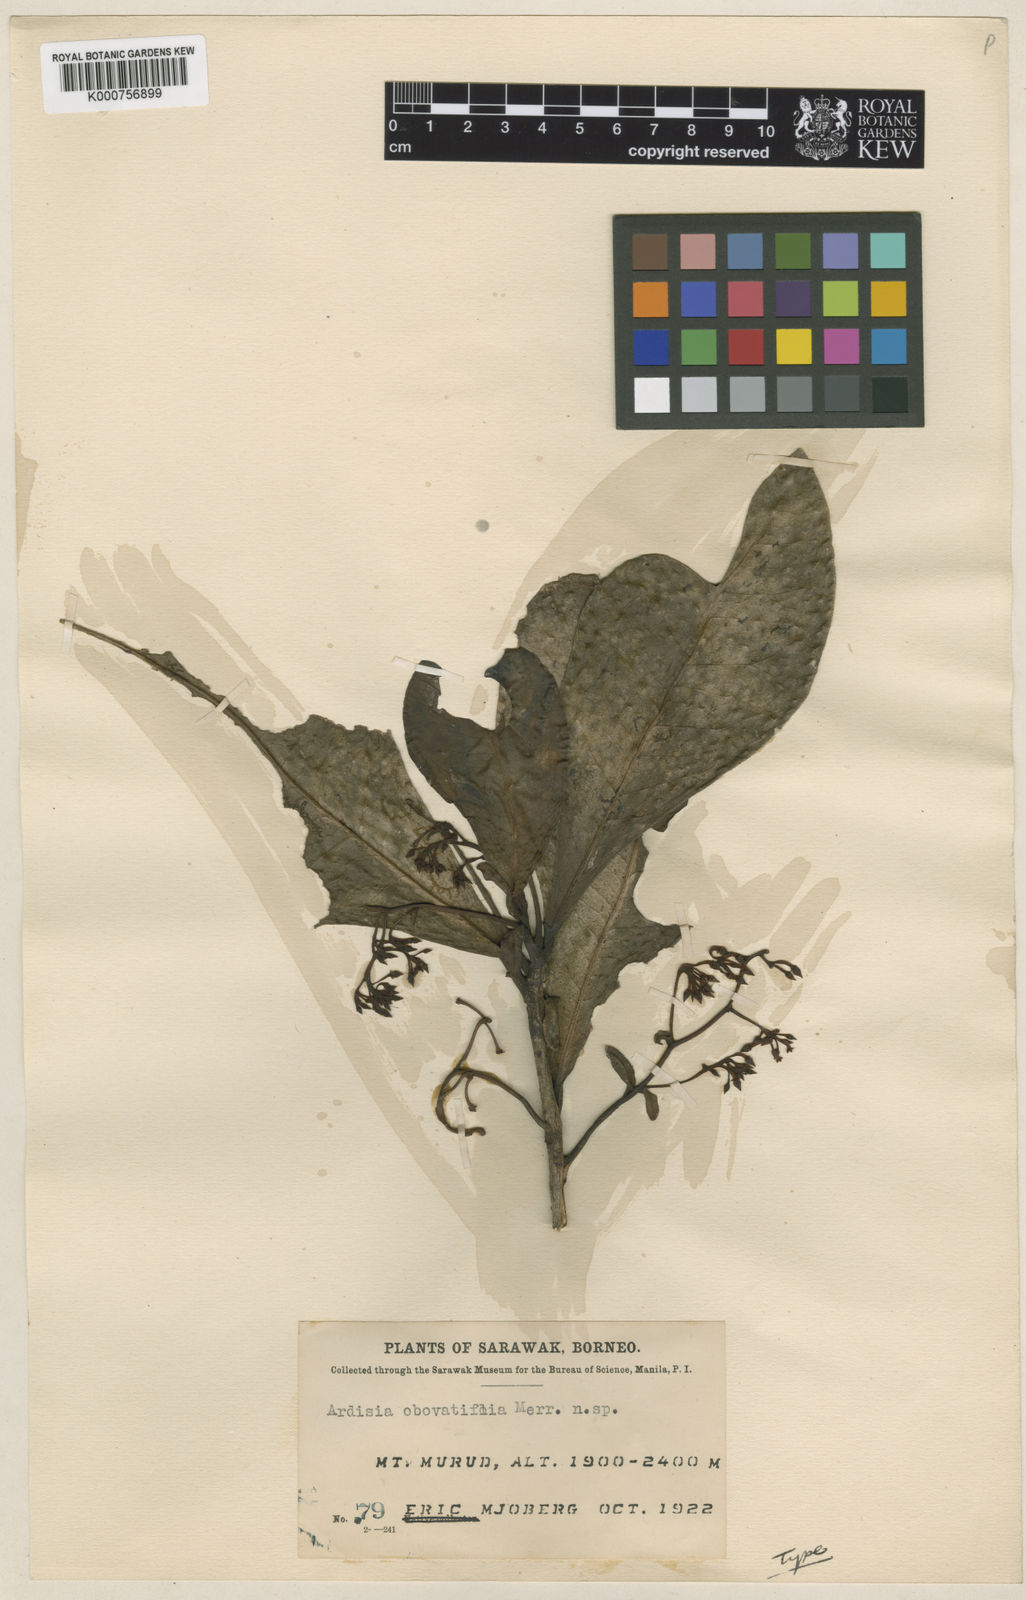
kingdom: Plantae
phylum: Tracheophyta
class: Magnoliopsida
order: Ericales
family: Primulaceae
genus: Ardisia
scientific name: Ardisia obovatifolia
